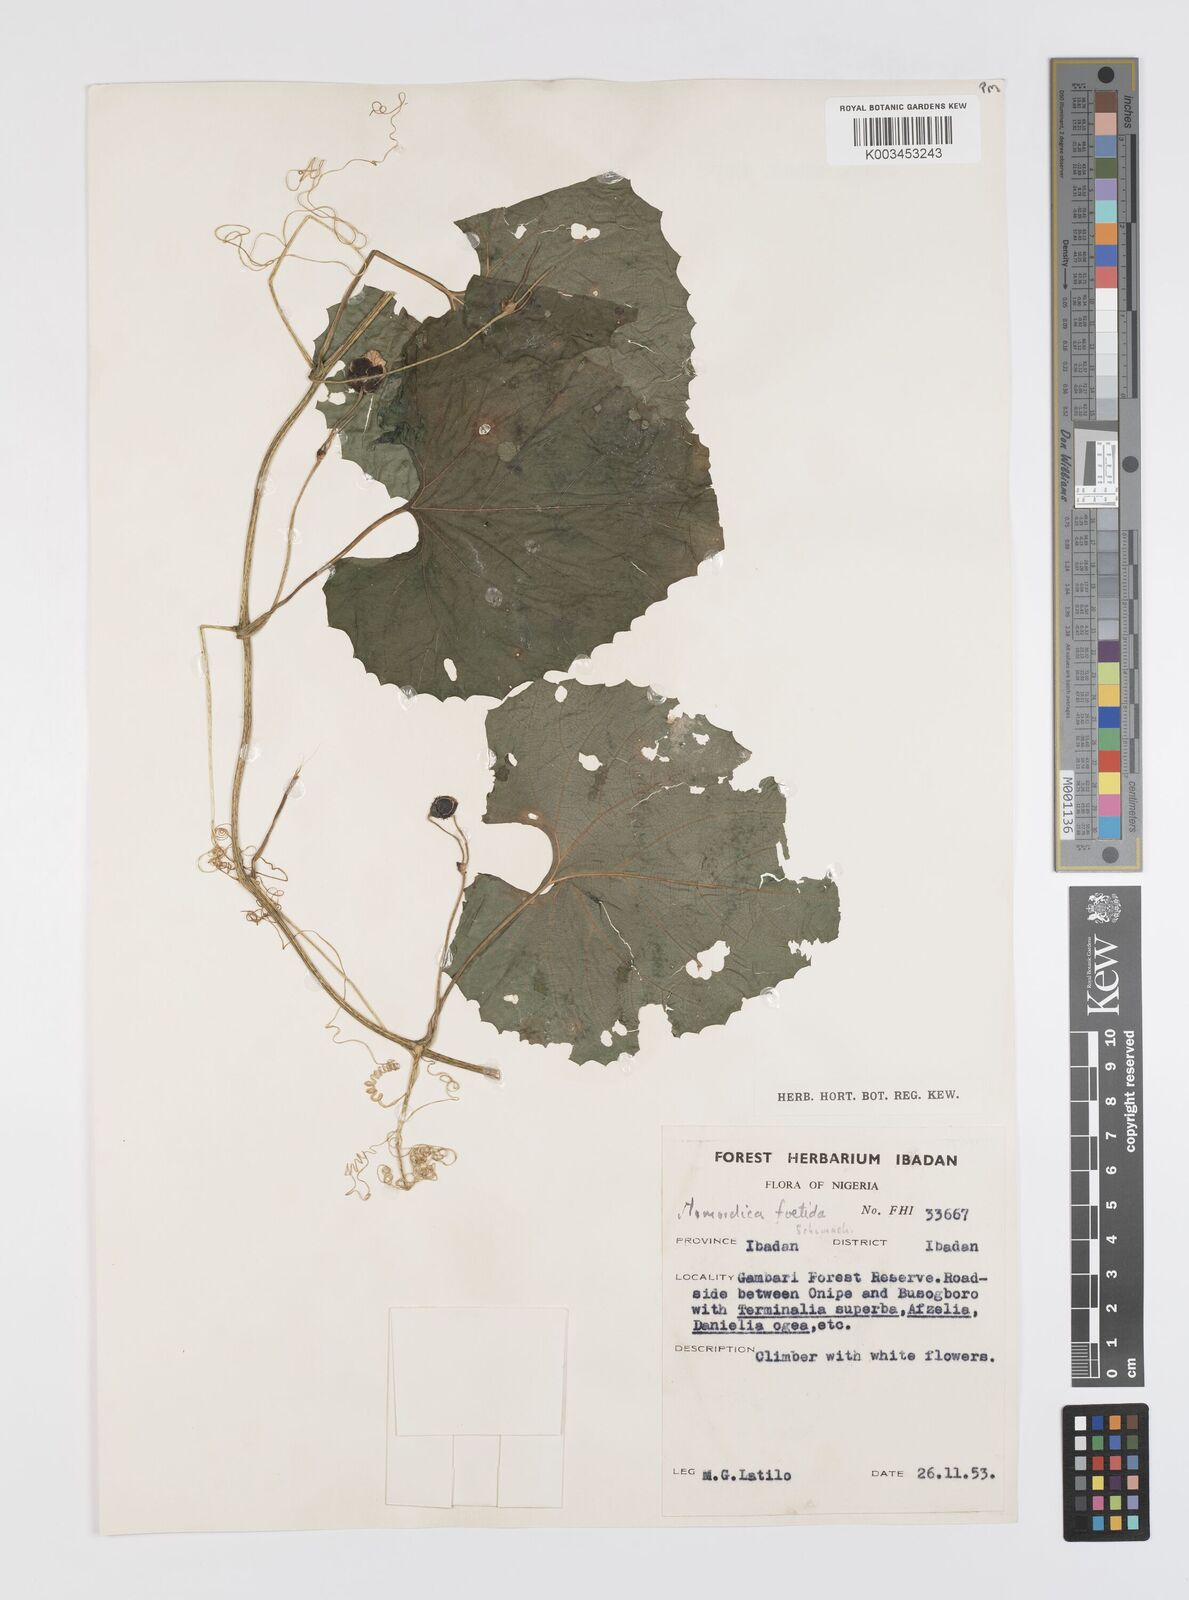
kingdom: Plantae
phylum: Tracheophyta
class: Magnoliopsida
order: Cucurbitales
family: Cucurbitaceae
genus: Momordica
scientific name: Momordica foetida
